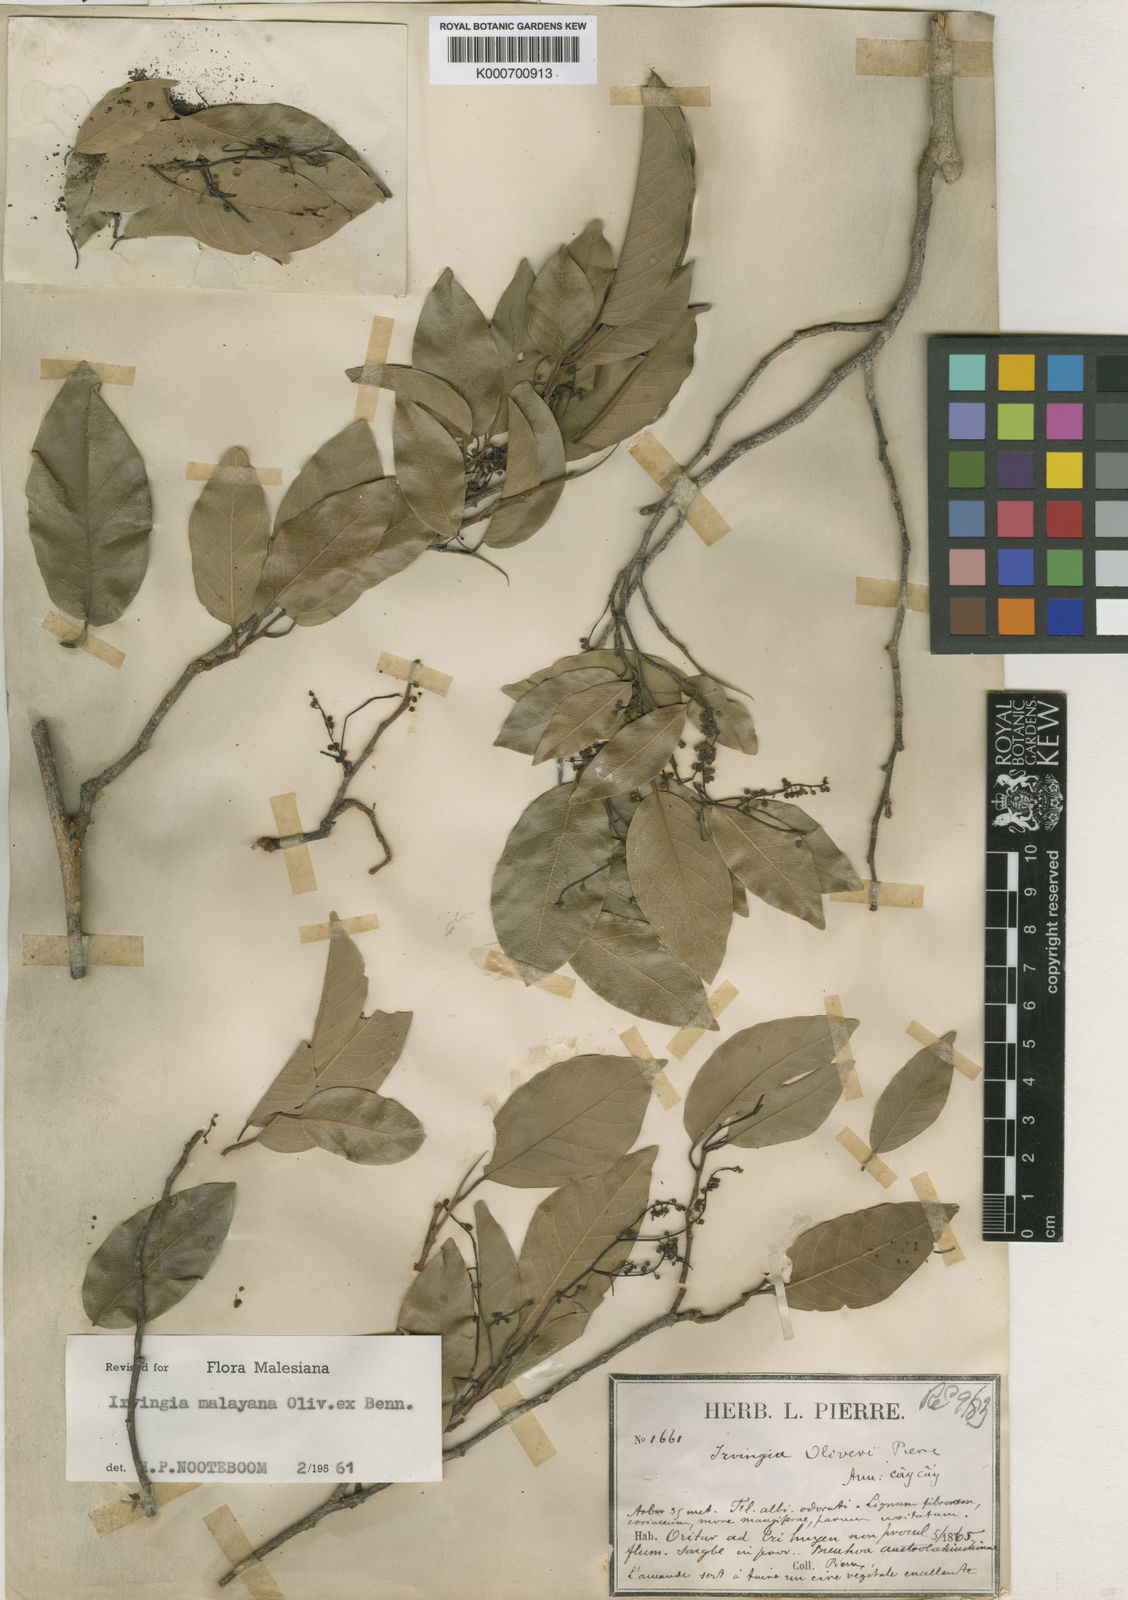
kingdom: Plantae
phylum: Tracheophyta
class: Magnoliopsida
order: Malpighiales
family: Irvingiaceae
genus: Irvingia
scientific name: Irvingia
